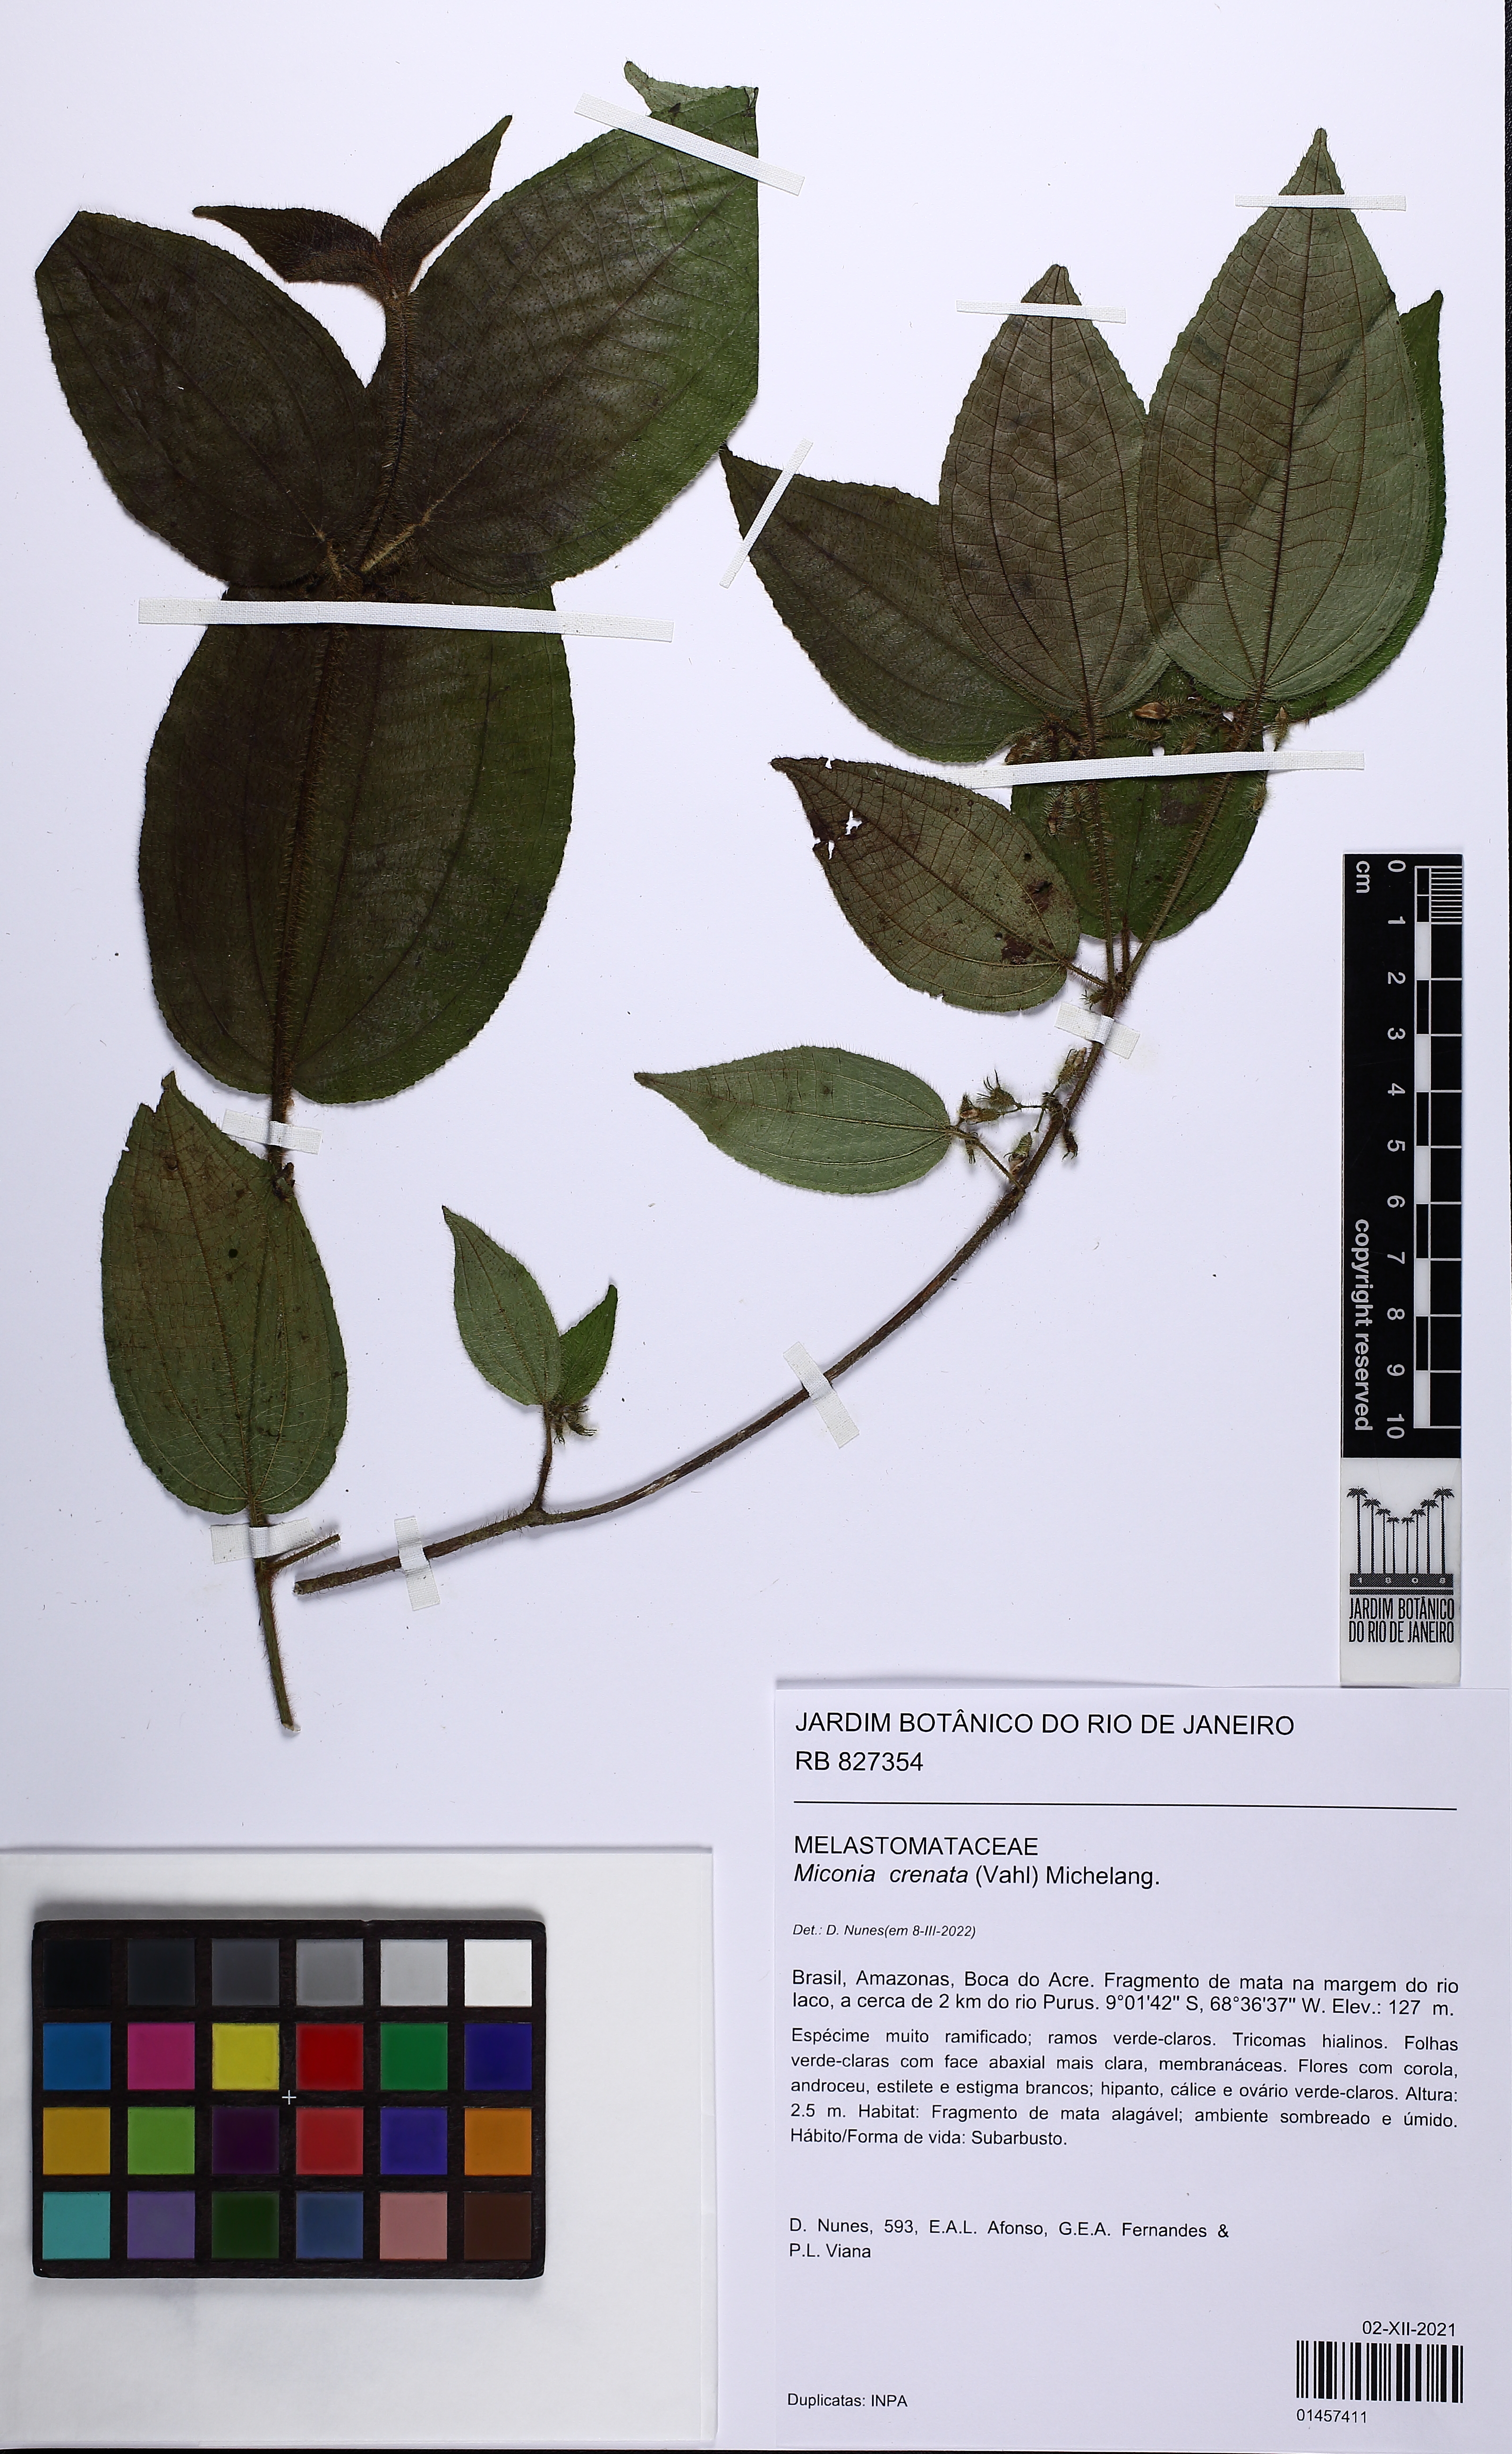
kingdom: Plantae
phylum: Tracheophyta
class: Magnoliopsida
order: Myrtales
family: Melastomataceae
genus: Miconia
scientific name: Miconia crenata
